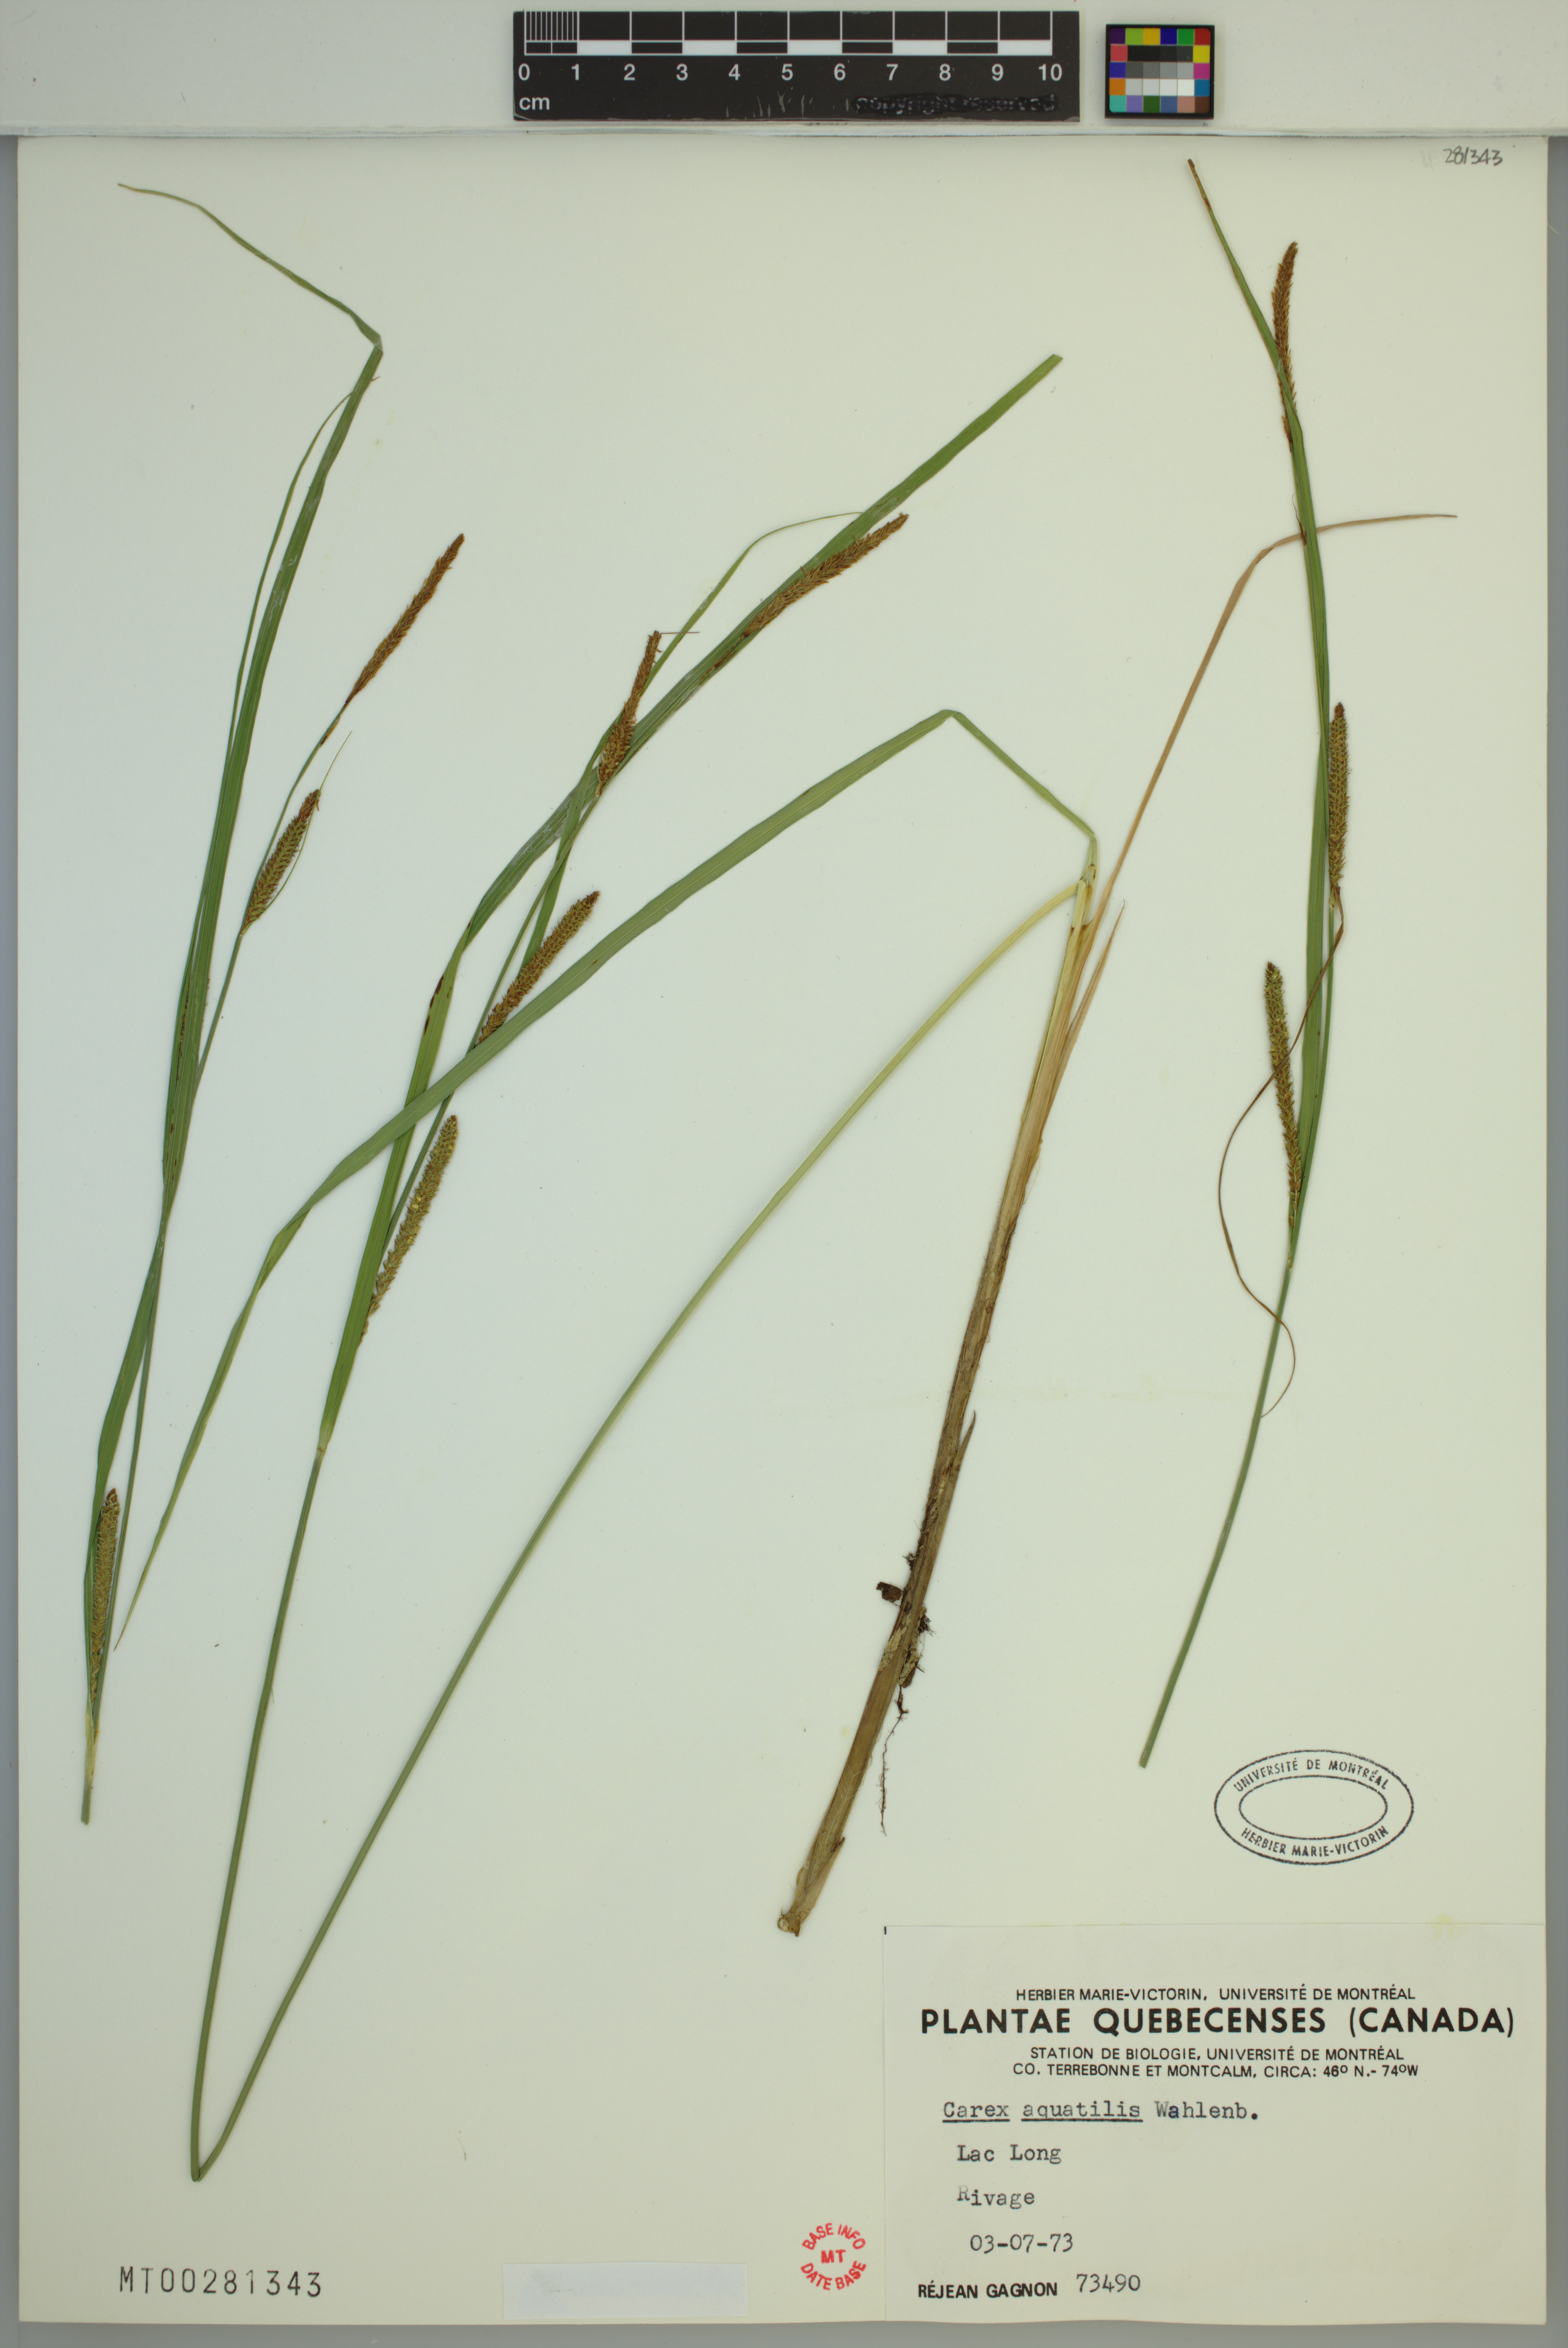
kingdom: Plantae
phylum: Tracheophyta
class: Liliopsida
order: Poales
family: Cyperaceae
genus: Carex
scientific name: Carex aquatilis
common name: Water sedge
